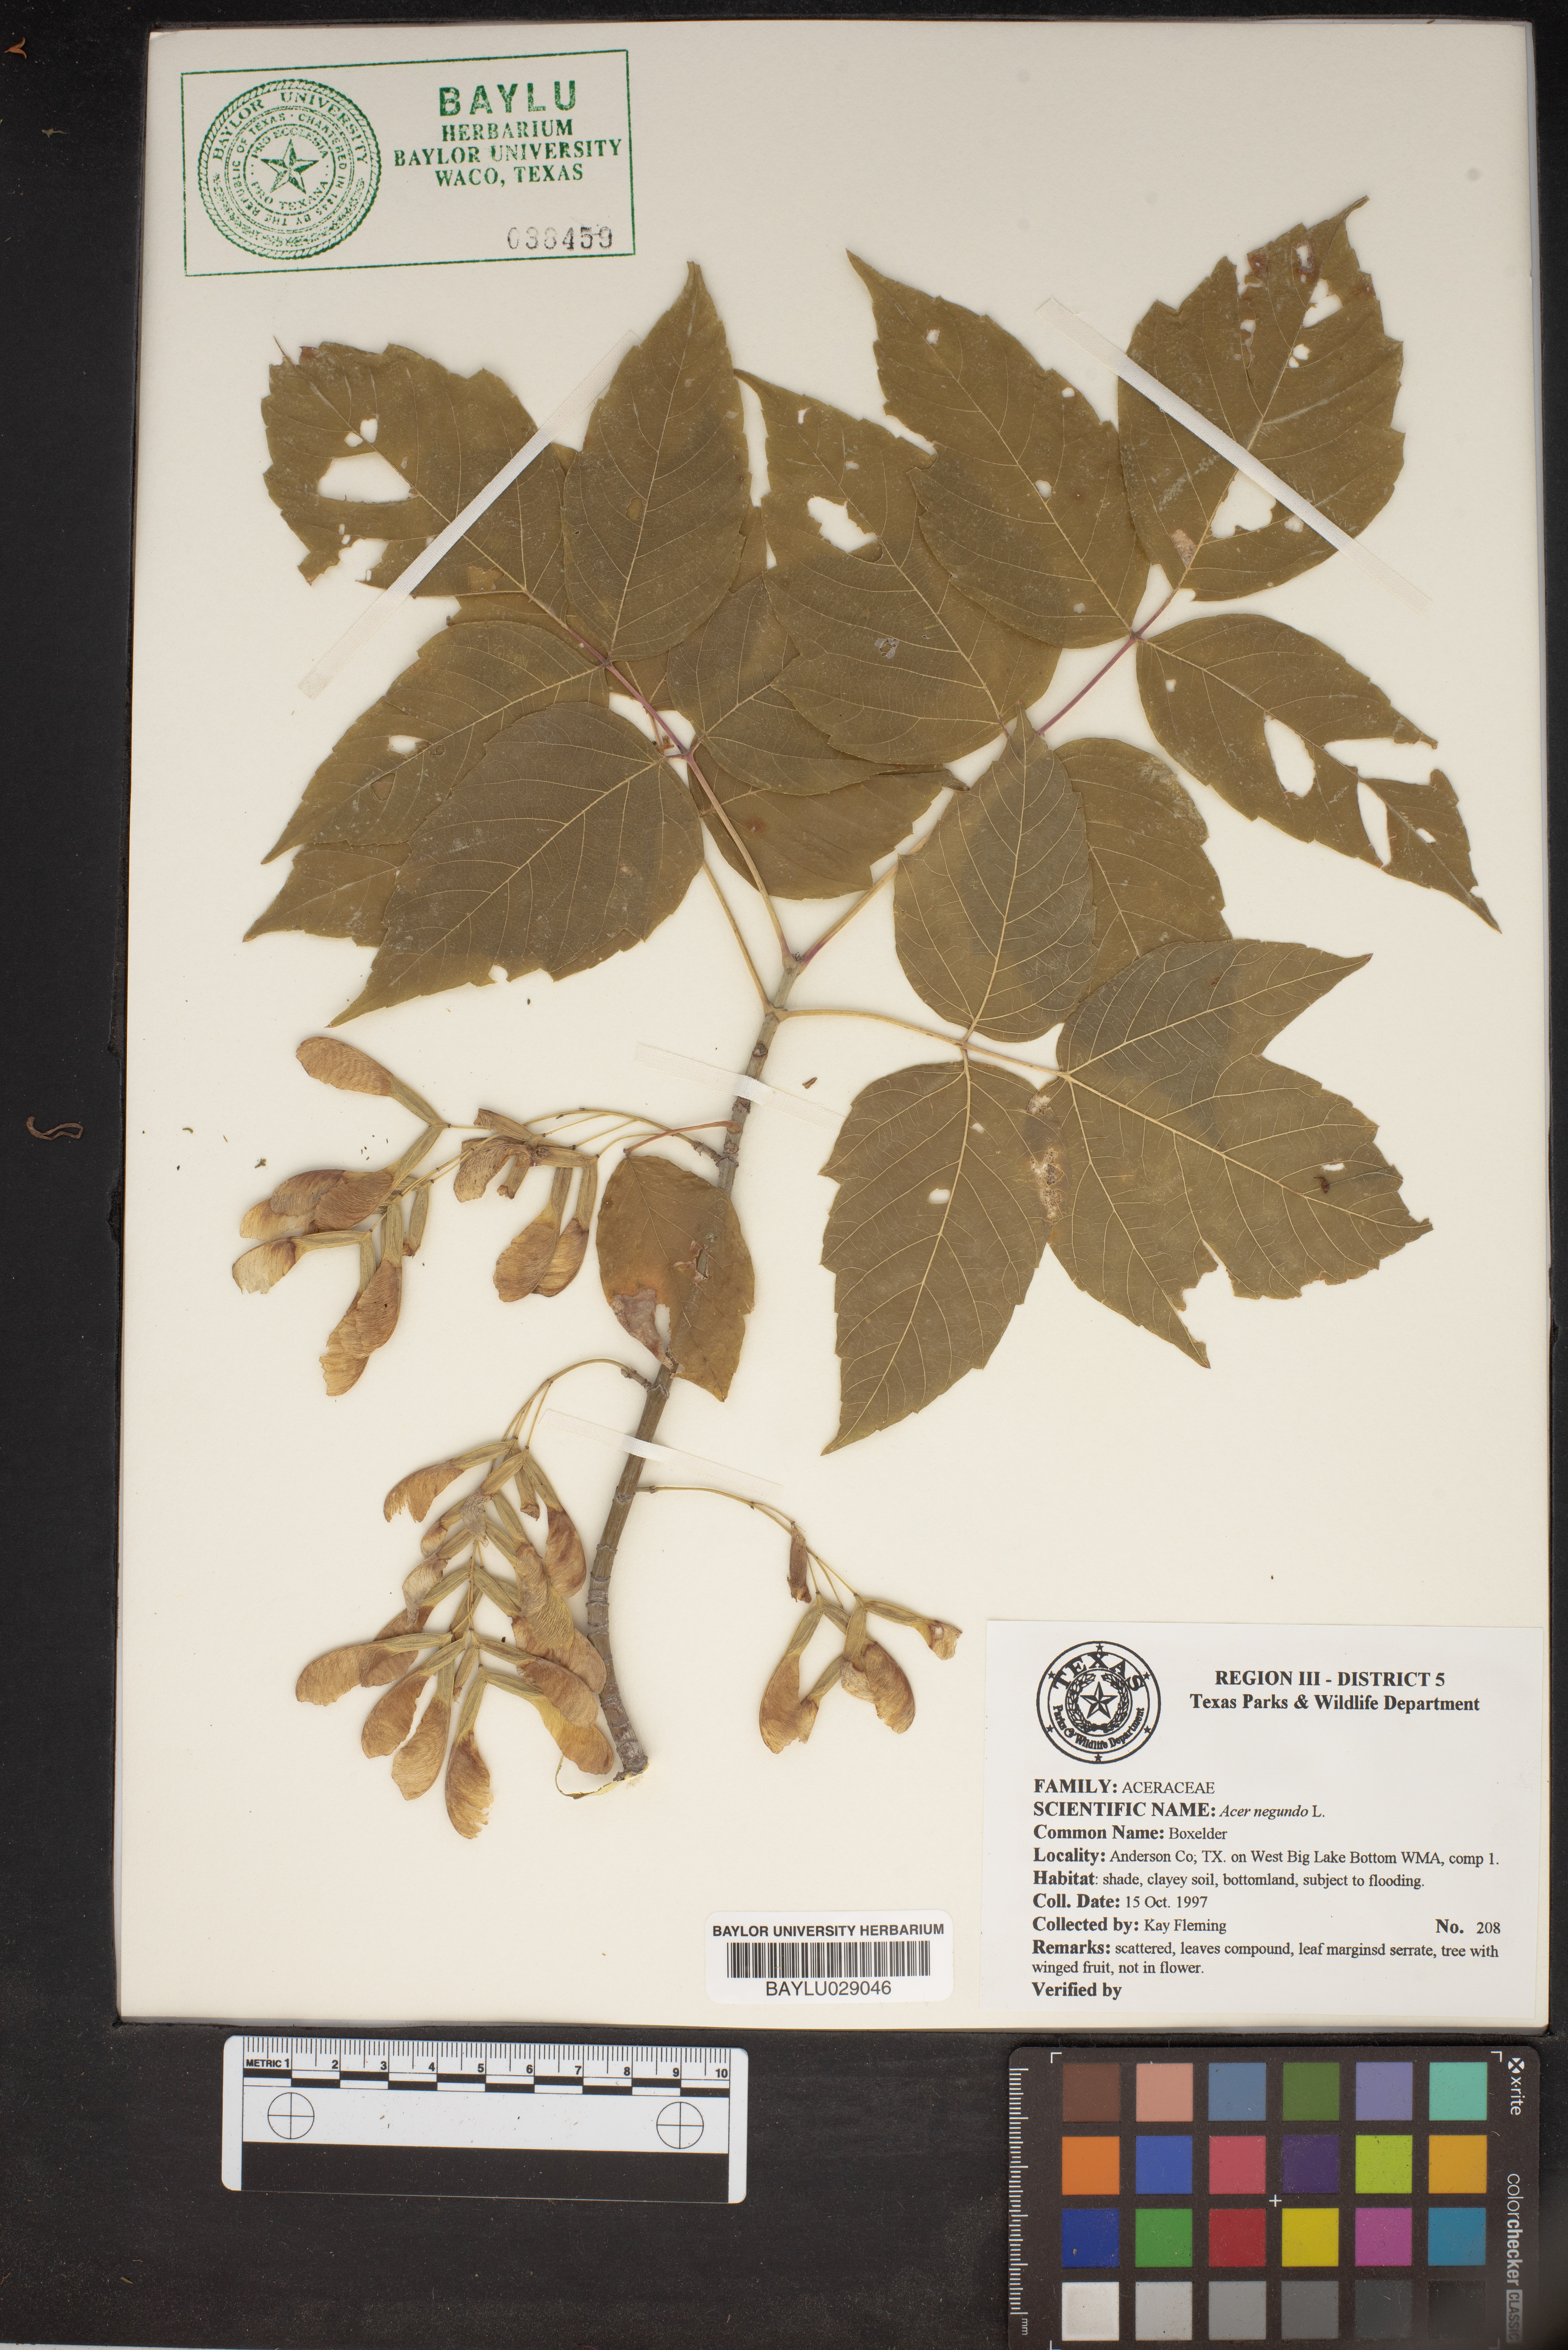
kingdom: Plantae
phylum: Tracheophyta
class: Magnoliopsida
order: Sapindales
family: Sapindaceae
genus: Acer
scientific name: Acer negundo
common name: Ashleaf maple
